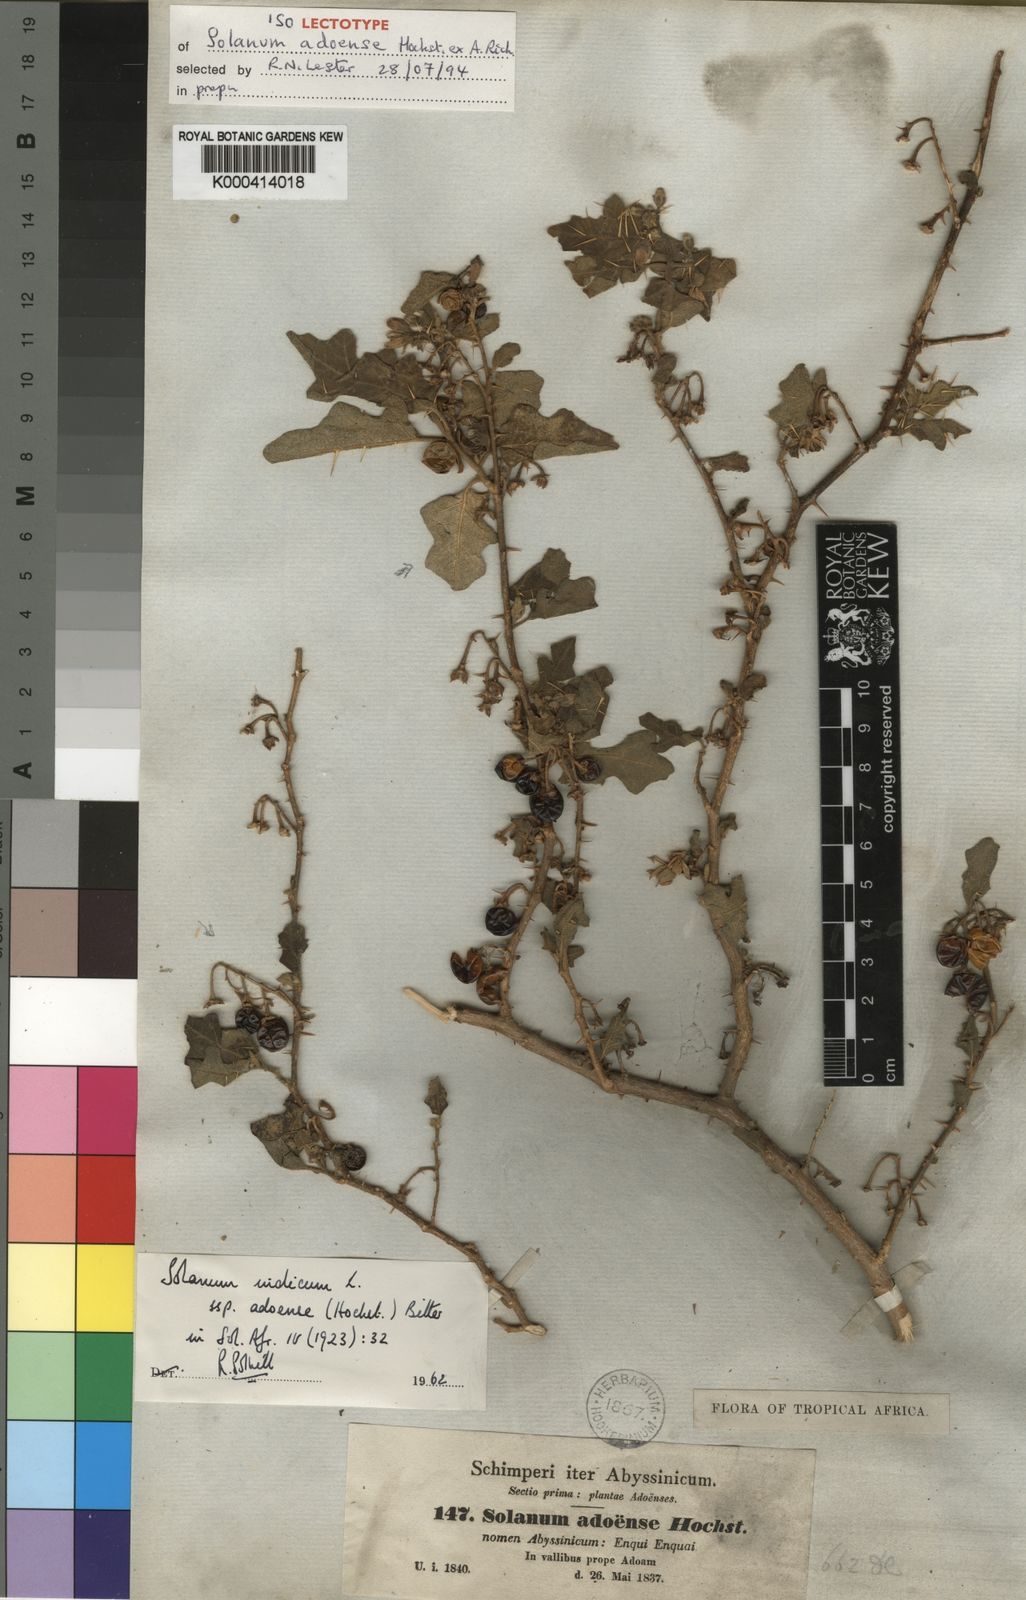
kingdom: Plantae
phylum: Tracheophyta
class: Magnoliopsida
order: Solanales
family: Solanaceae
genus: Solanum
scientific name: Solanum violaceum
